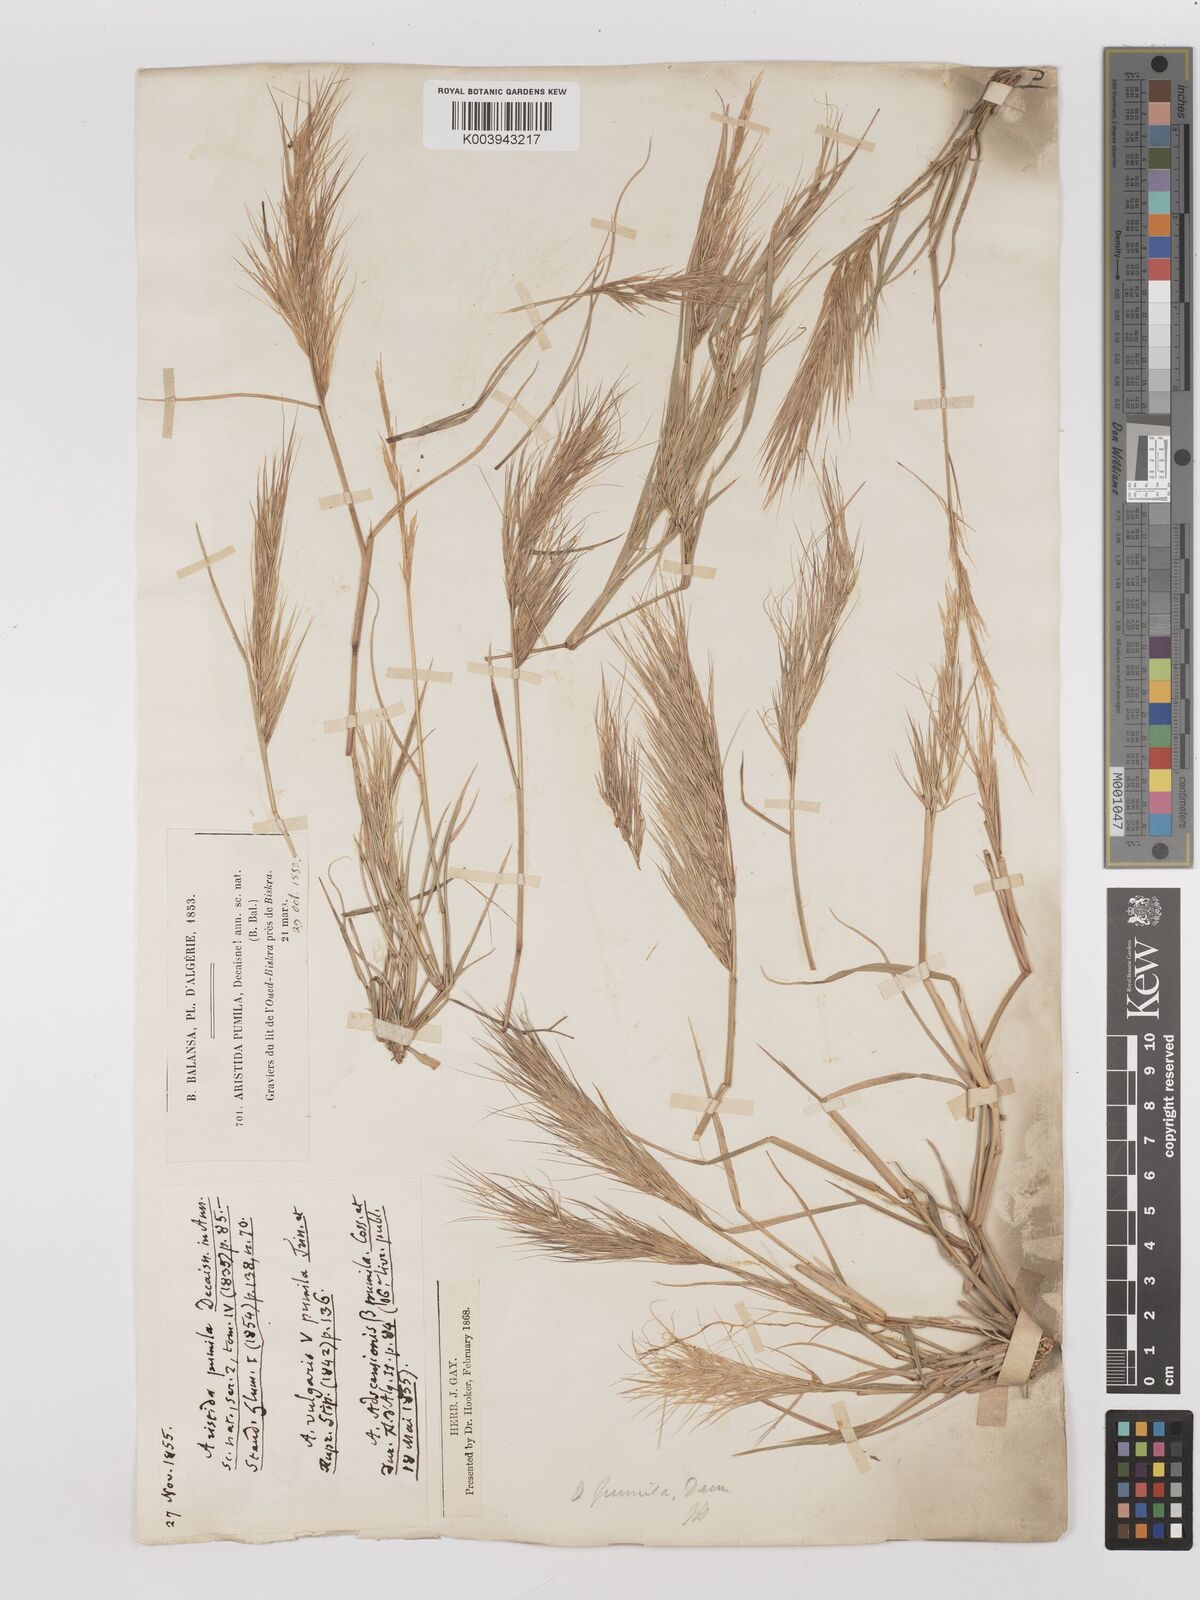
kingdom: Plantae
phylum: Tracheophyta
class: Liliopsida
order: Poales
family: Poaceae
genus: Aristida
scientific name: Aristida adscensionis
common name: Sixweeks threeawn
